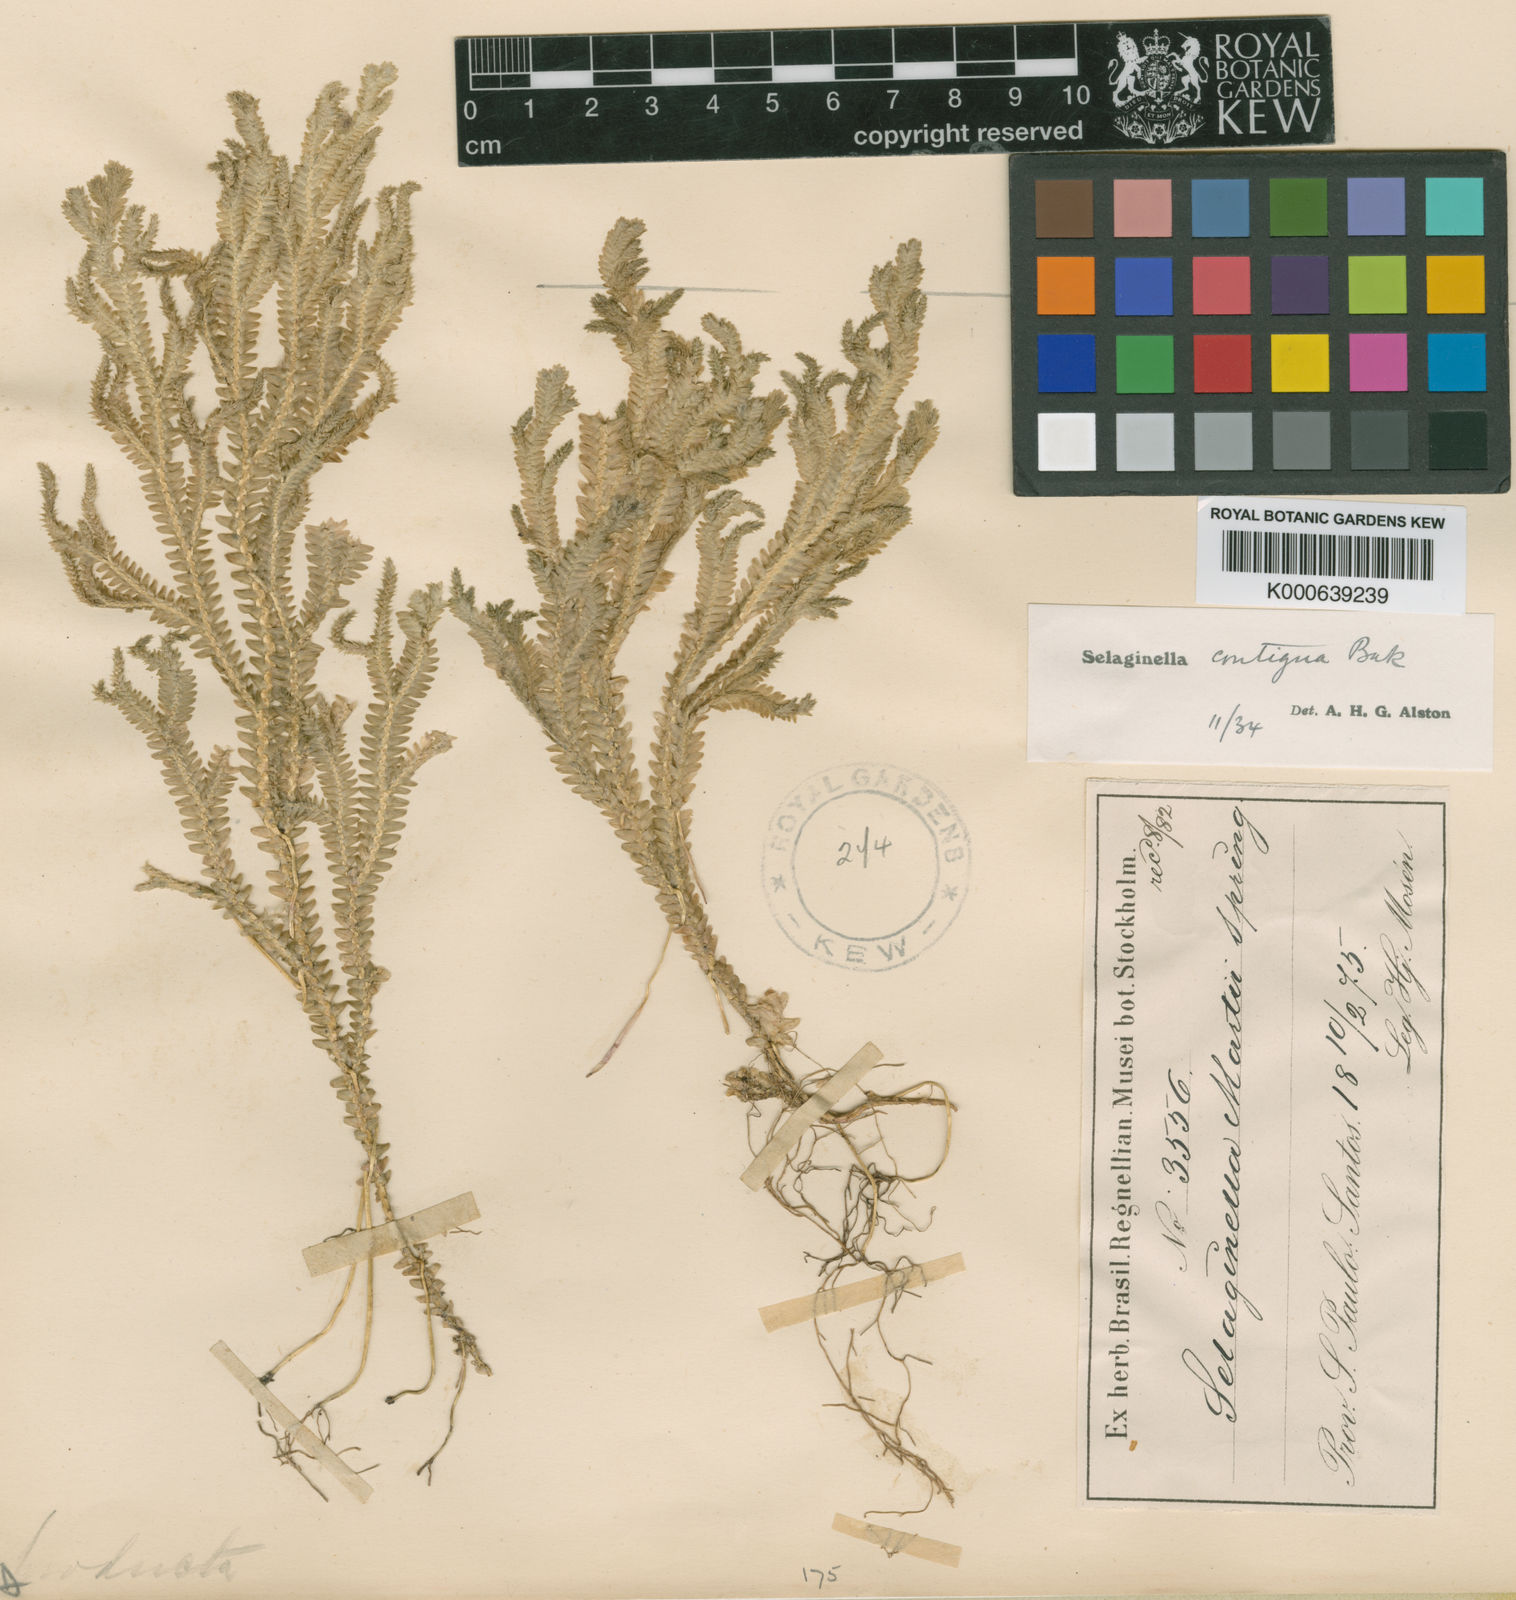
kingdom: Plantae
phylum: Tracheophyta
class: Lycopodiopsida
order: Selaginellales
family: Selaginellaceae
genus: Selaginella
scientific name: Selaginella contigua
